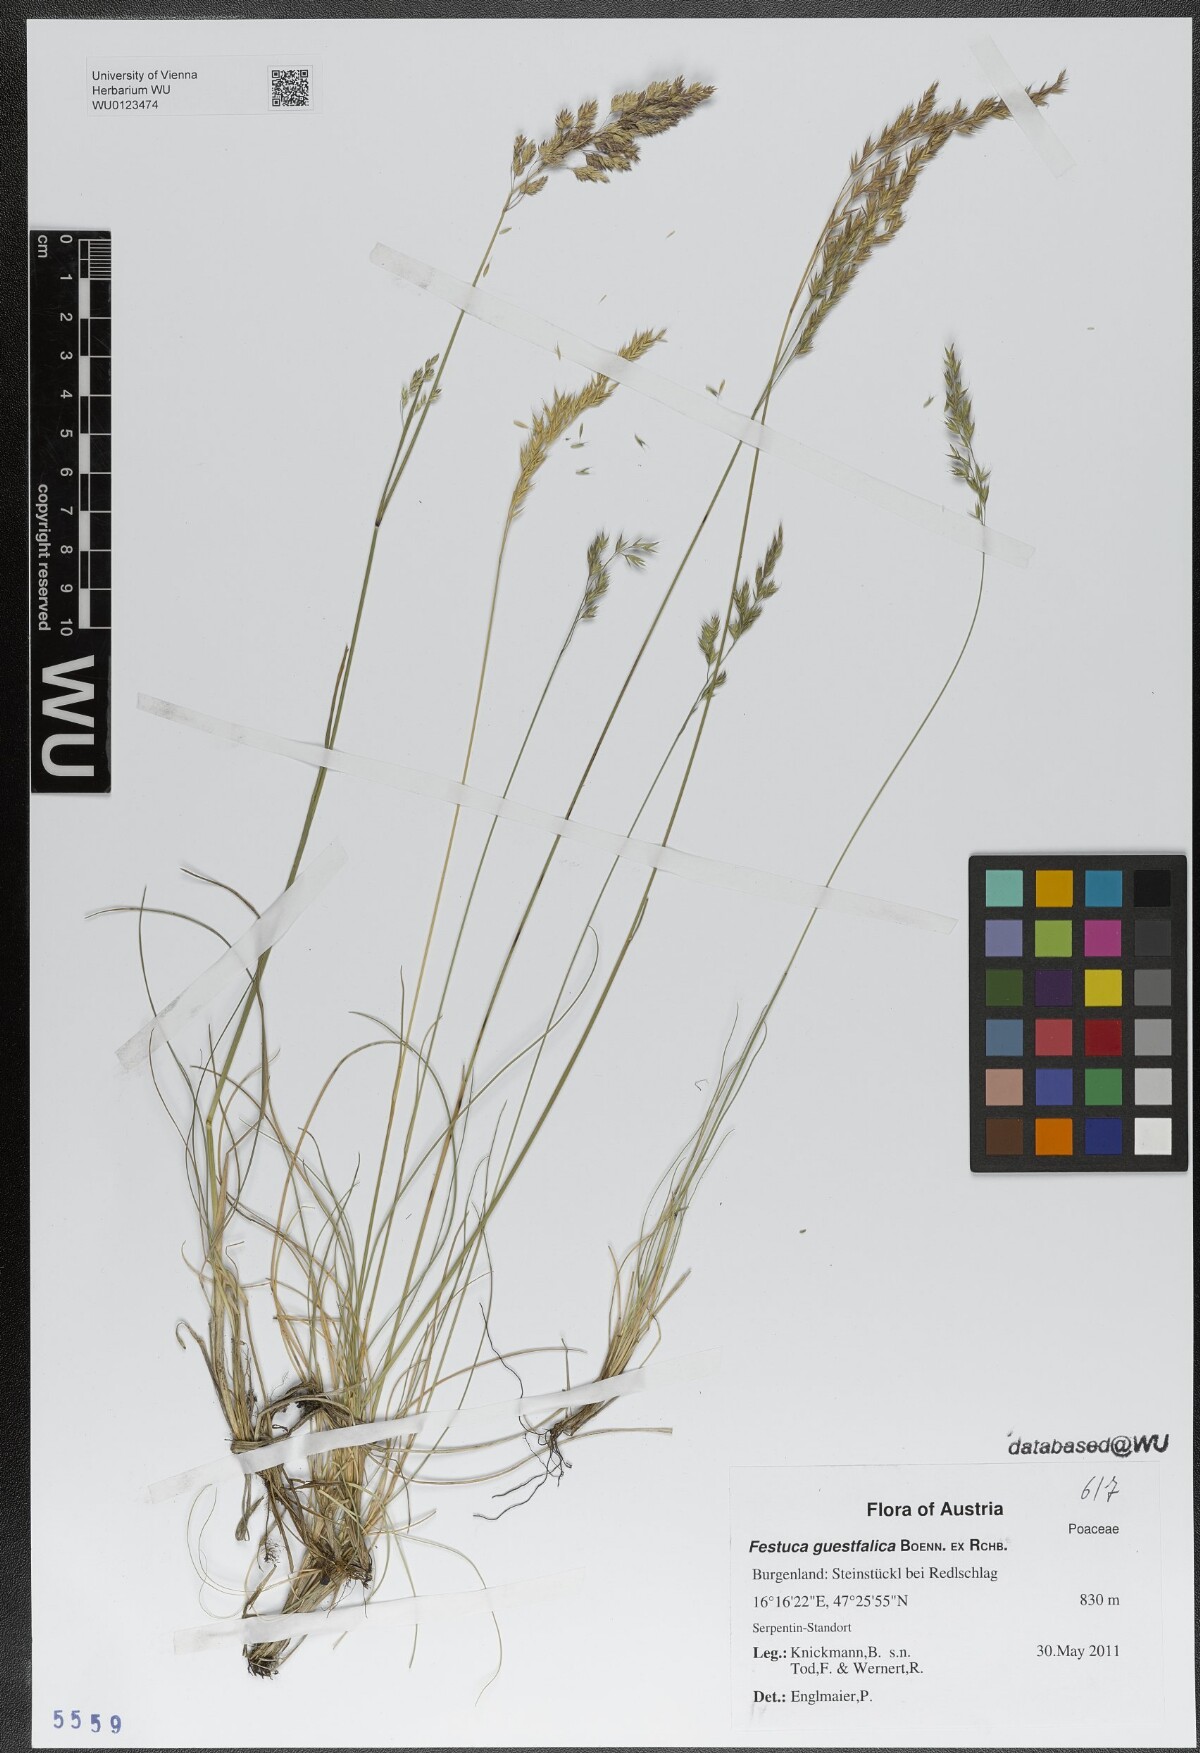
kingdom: Plantae
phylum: Tracheophyta
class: Liliopsida
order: Poales
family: Poaceae
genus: Festuca
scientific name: Festuca guestfalica
